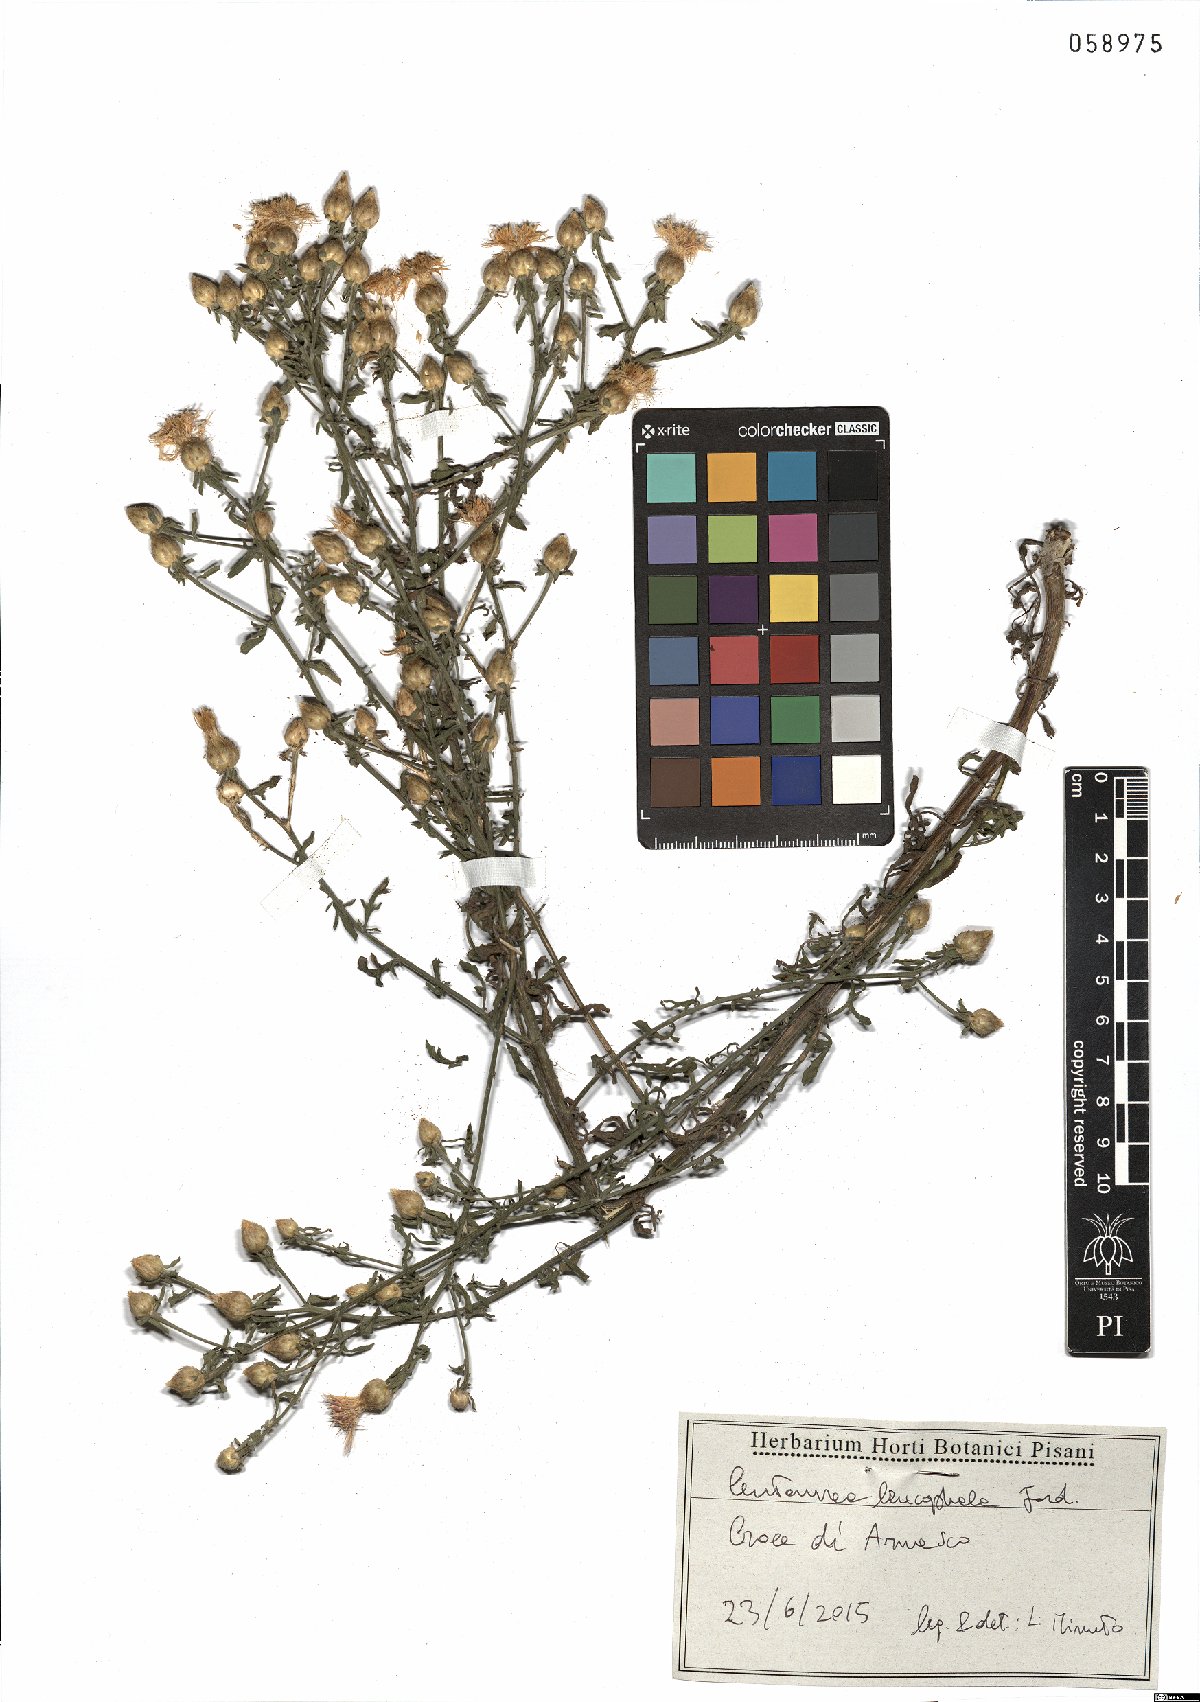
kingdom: Plantae
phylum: Tracheophyta
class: Magnoliopsida
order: Asterales
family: Asteraceae
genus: Centaurea
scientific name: Centaurea leucophaea
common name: Whitish-leaved knapweed
